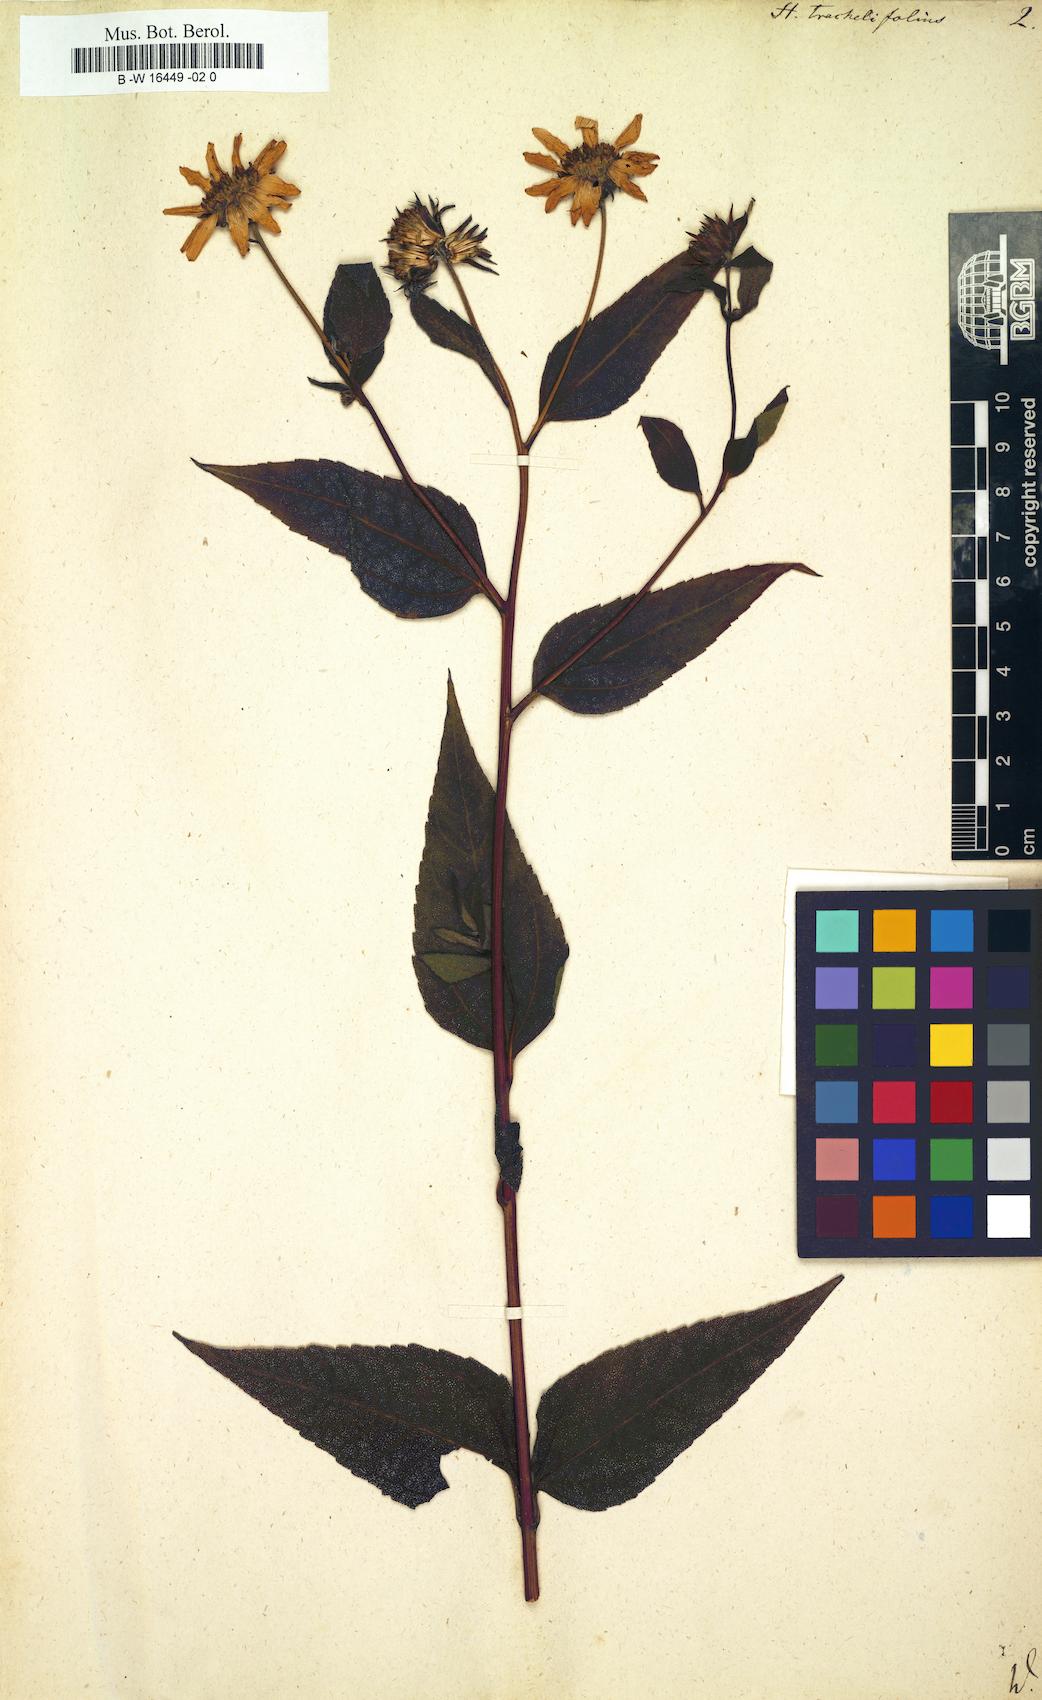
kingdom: Plantae
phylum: Tracheophyta
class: Magnoliopsida
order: Asterales
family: Asteraceae
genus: Helianthus
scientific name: Helianthus decapetalus
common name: Thin-leaved sunflower
